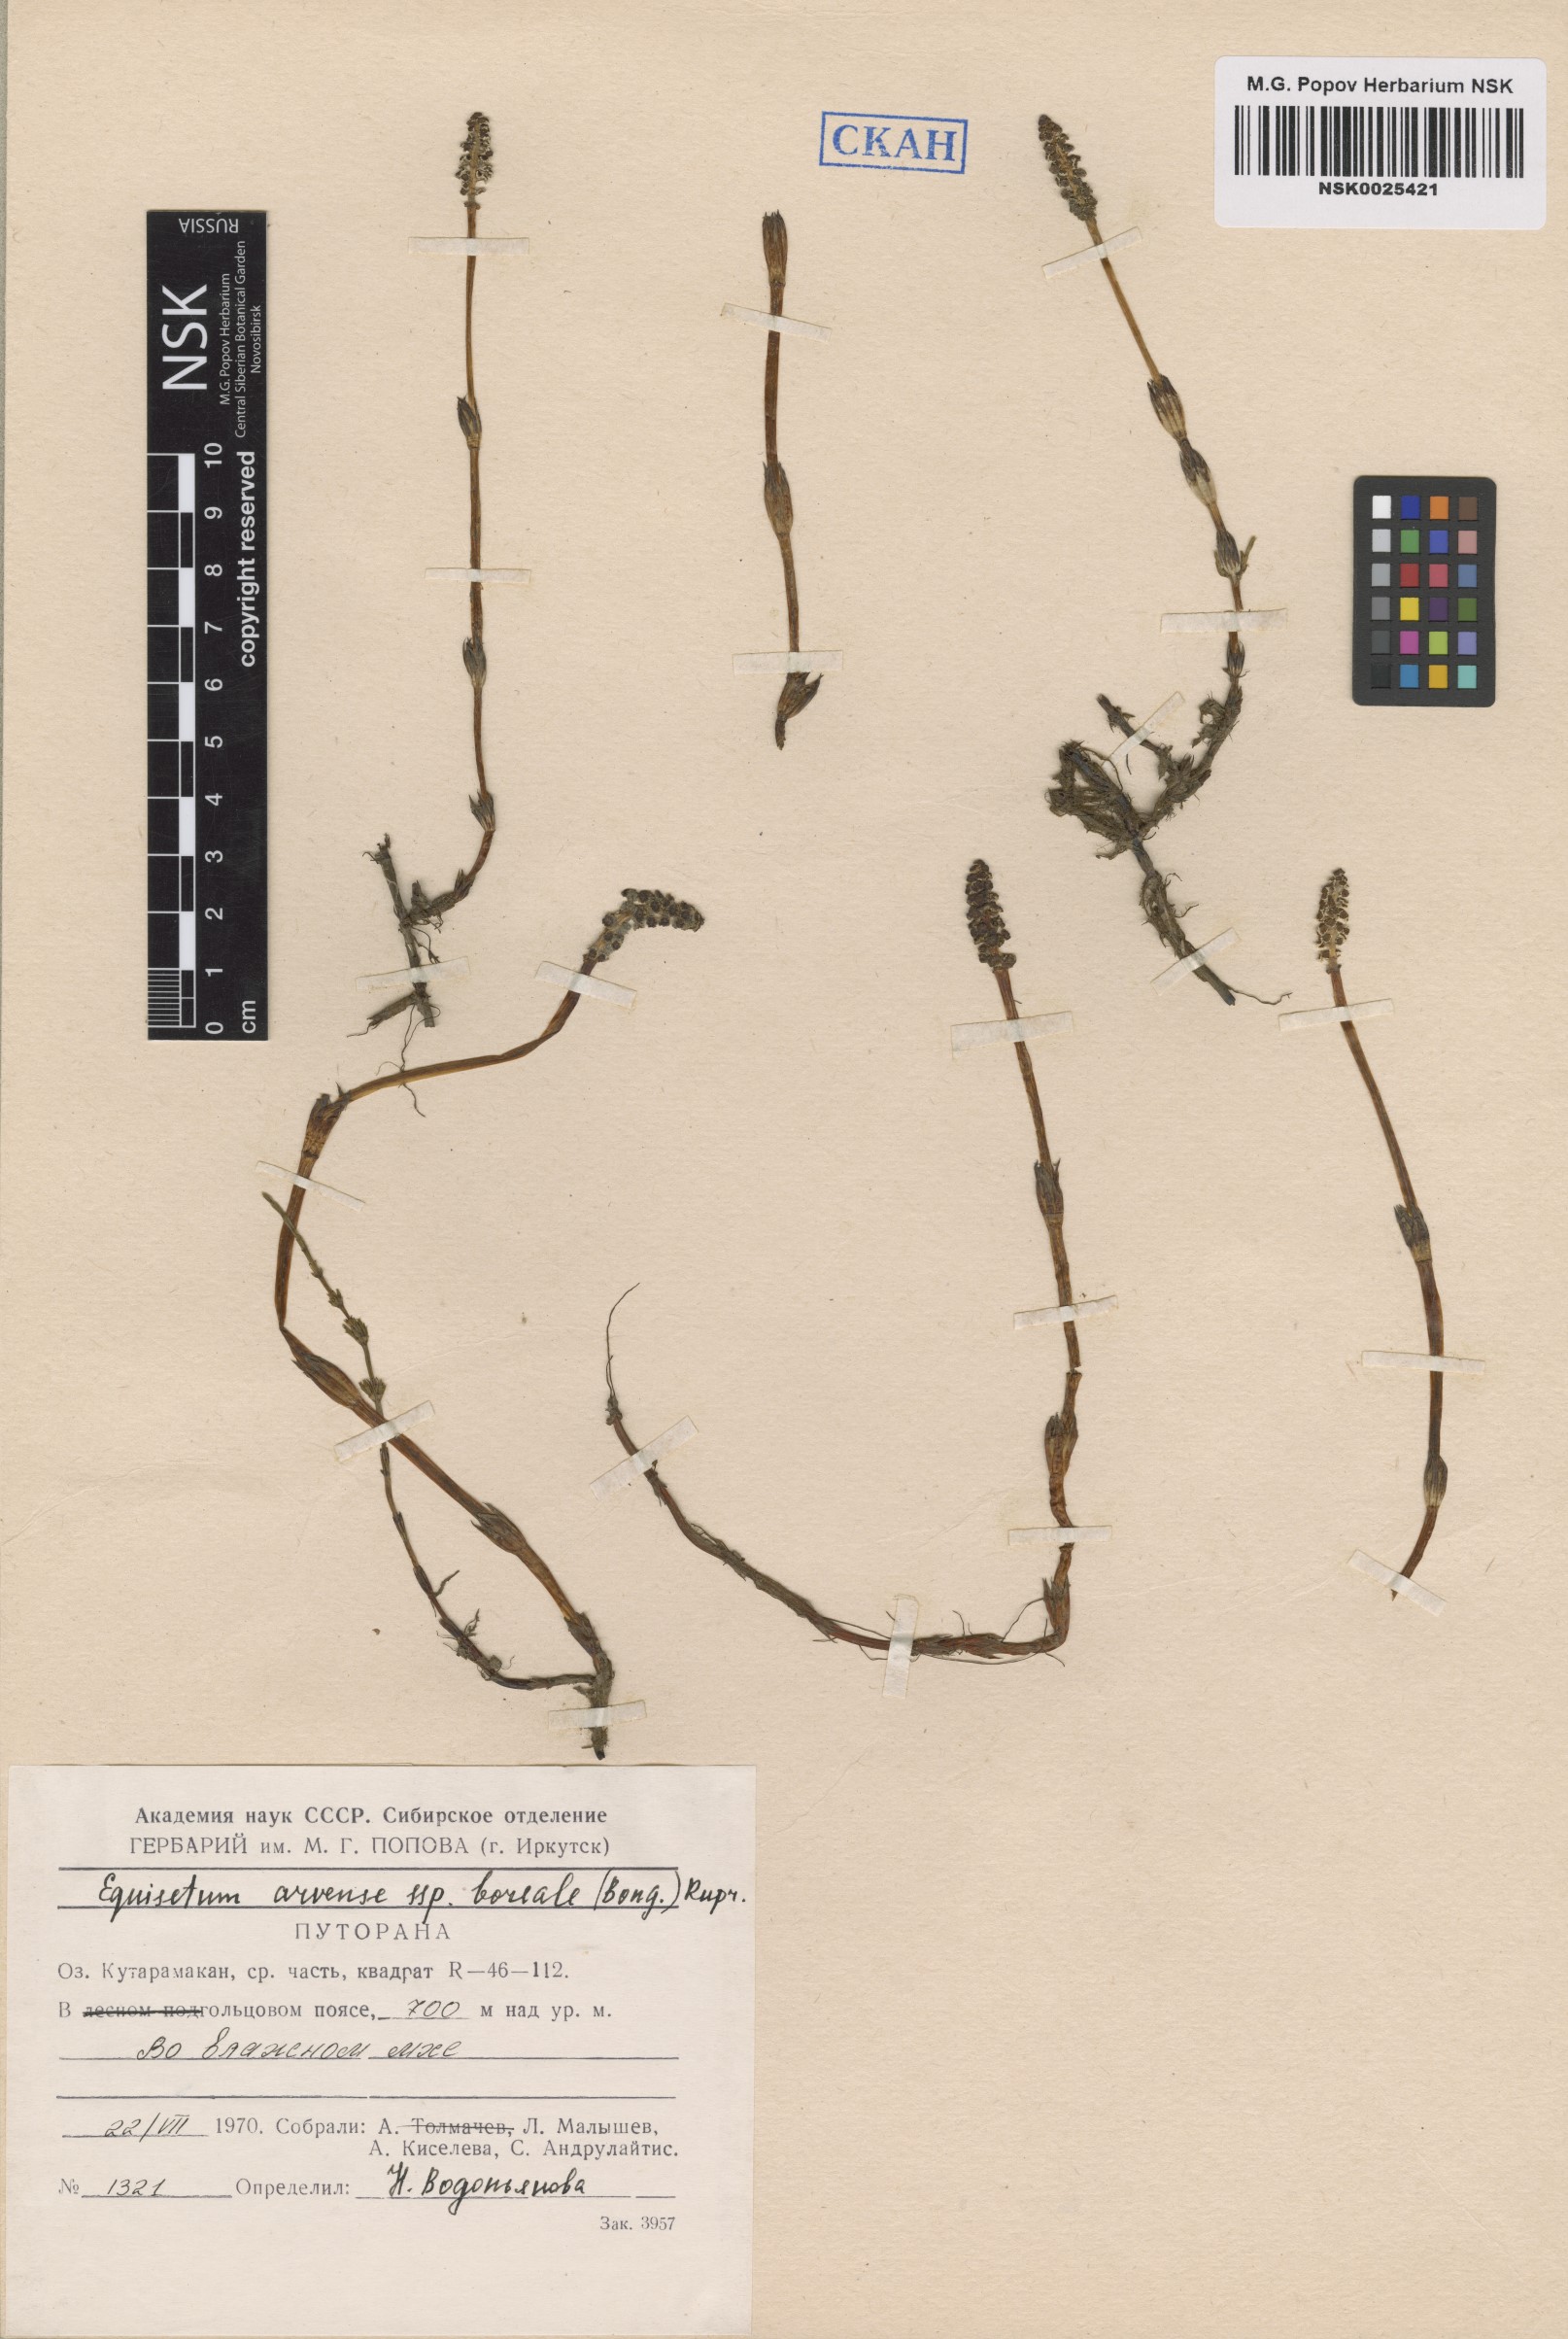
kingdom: Plantae
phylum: Tracheophyta
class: Polypodiopsida
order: Equisetales
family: Equisetaceae
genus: Equisetum
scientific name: Equisetum arvense
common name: Field horsetail
